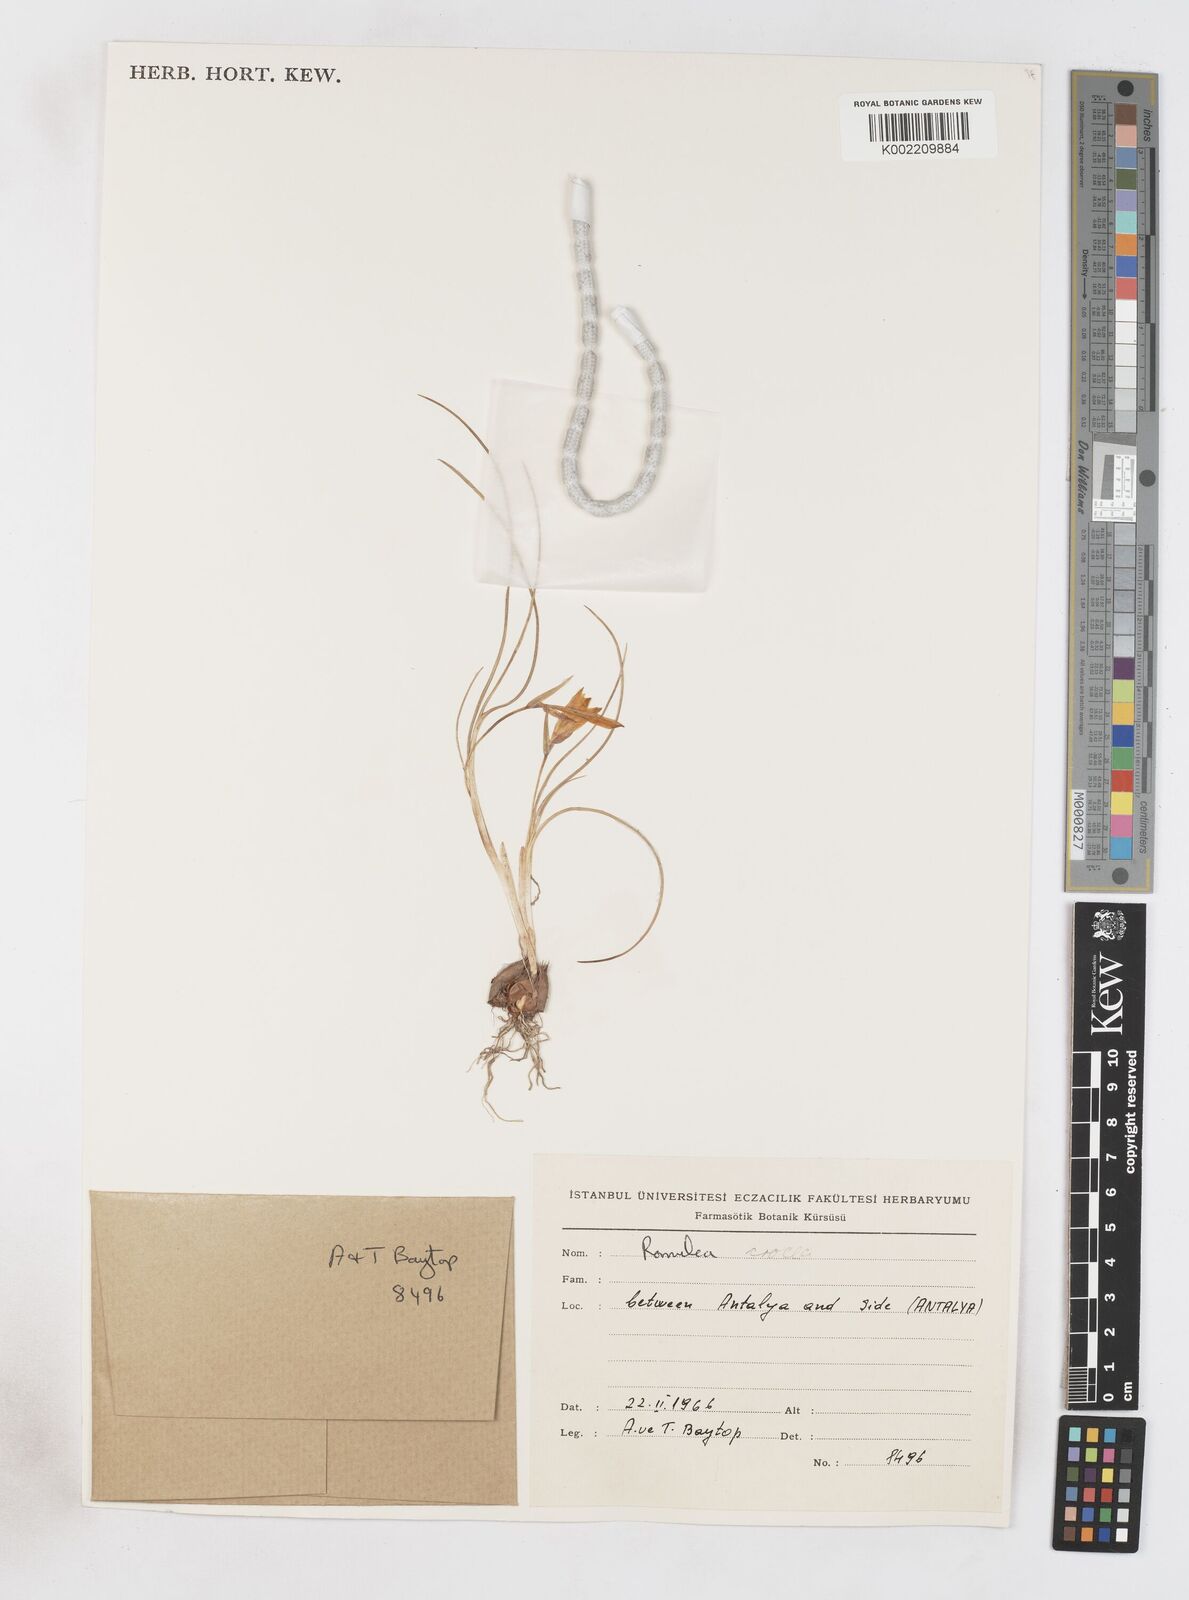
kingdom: Plantae
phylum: Tracheophyta
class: Liliopsida
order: Asparagales
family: Iridaceae
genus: Romulea
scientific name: Romulea bulbocodium
